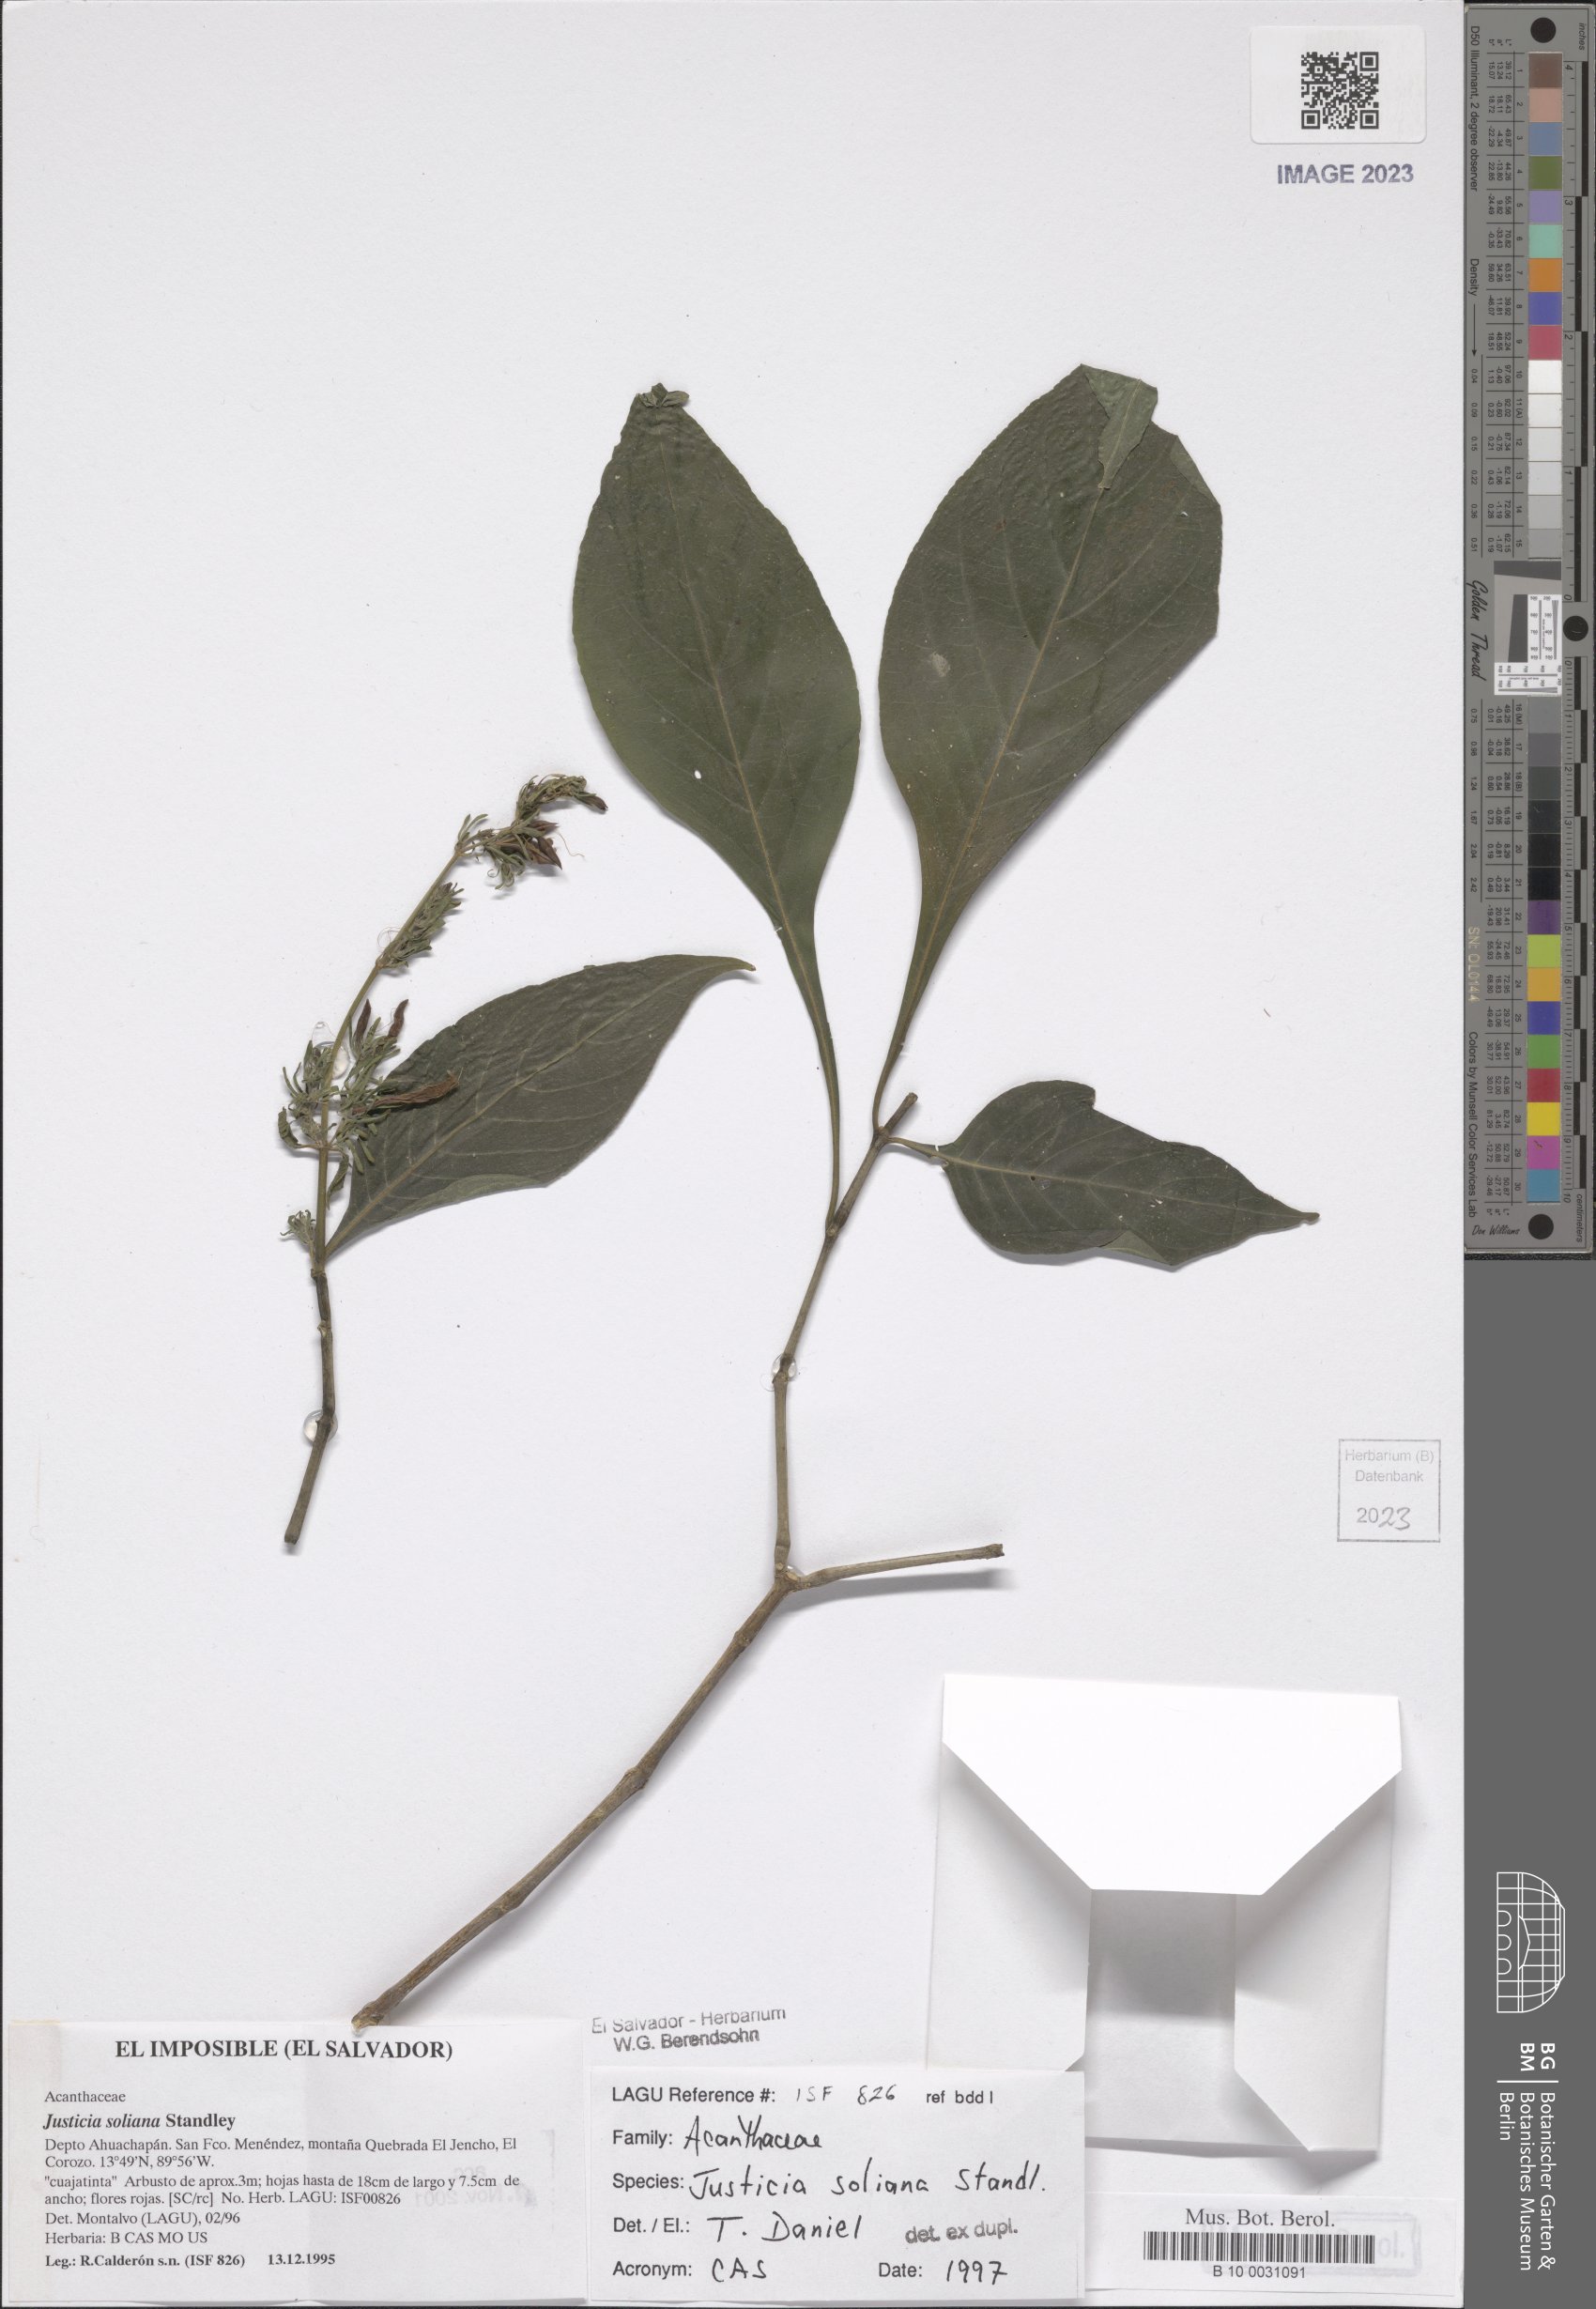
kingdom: Plantae
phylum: Tracheophyta
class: Magnoliopsida
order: Lamiales
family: Acanthaceae
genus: Justicia
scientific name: Justicia soliana
